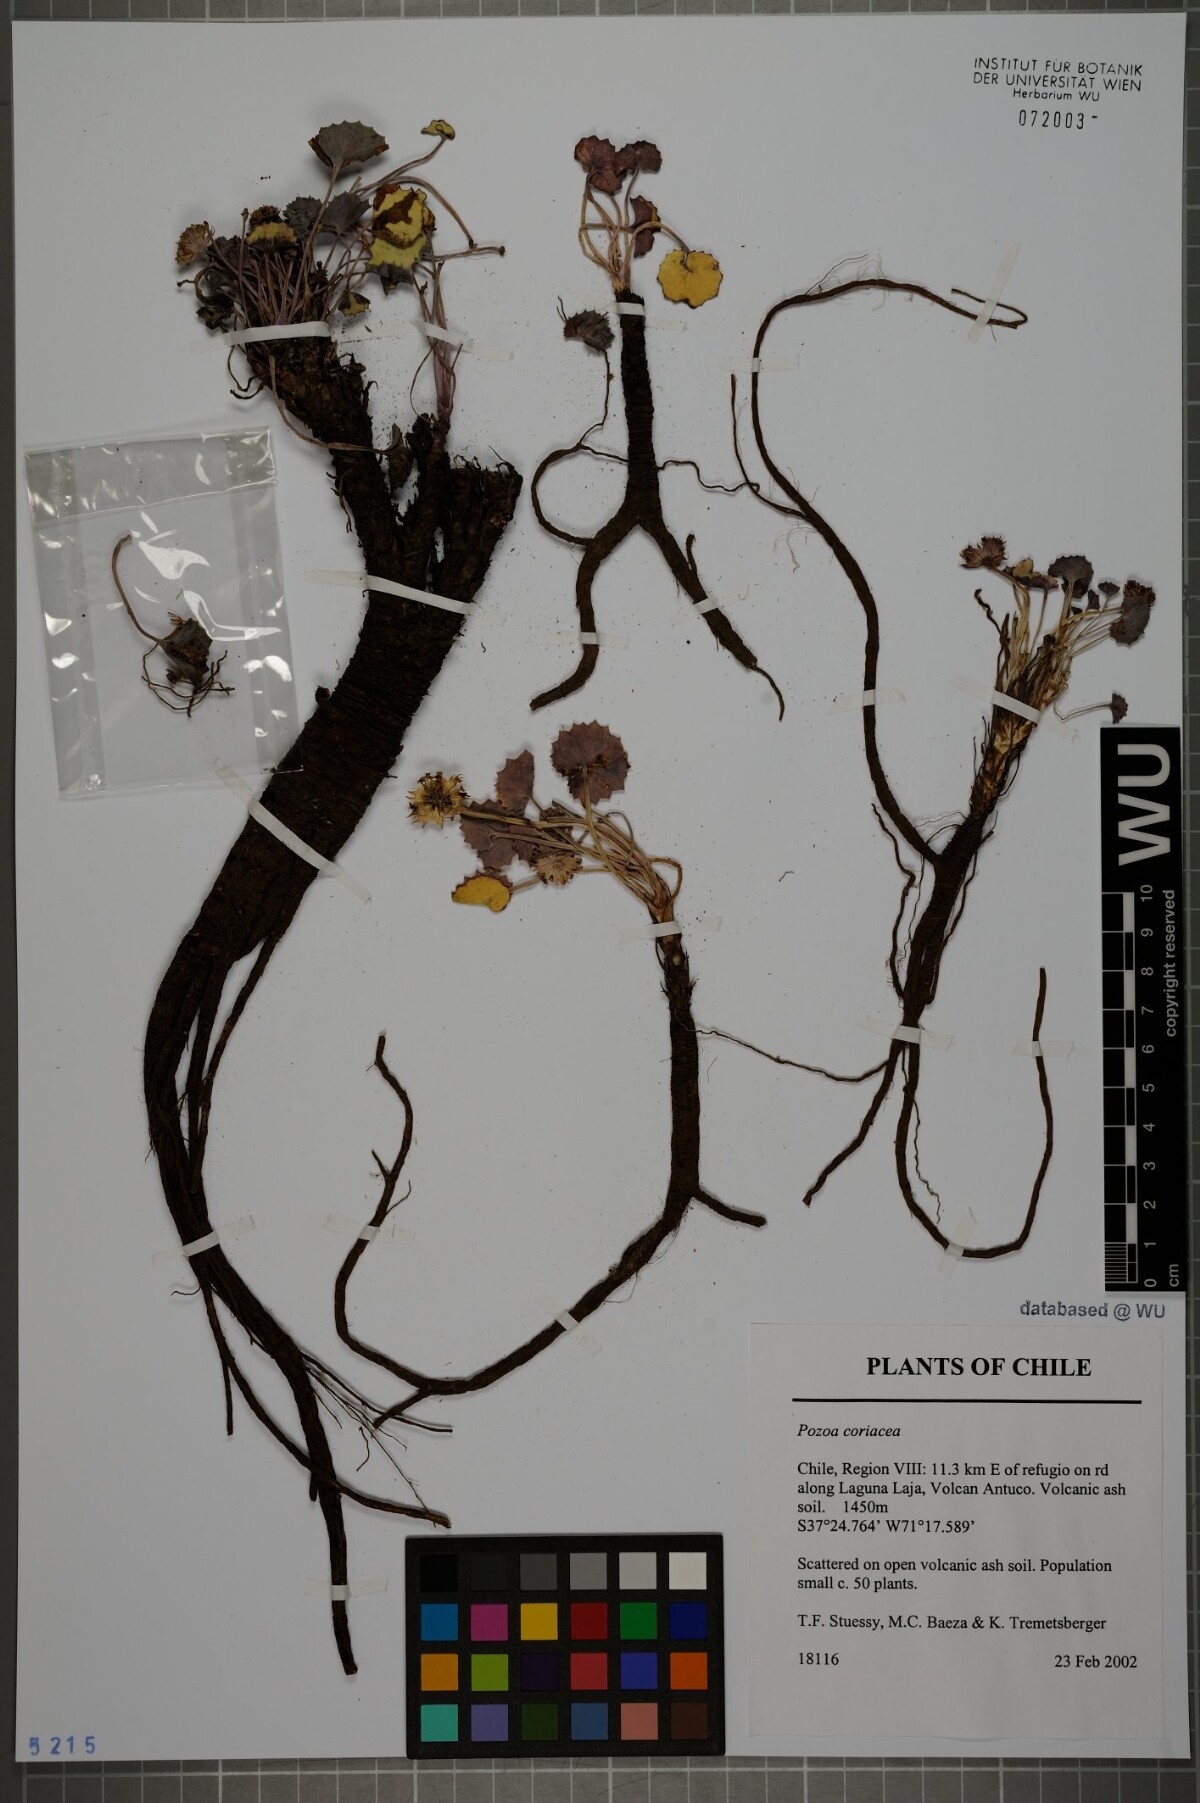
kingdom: Plantae
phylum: Tracheophyta
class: Magnoliopsida
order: Apiales
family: Apiaceae
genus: Pozoa
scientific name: Pozoa coriacea
